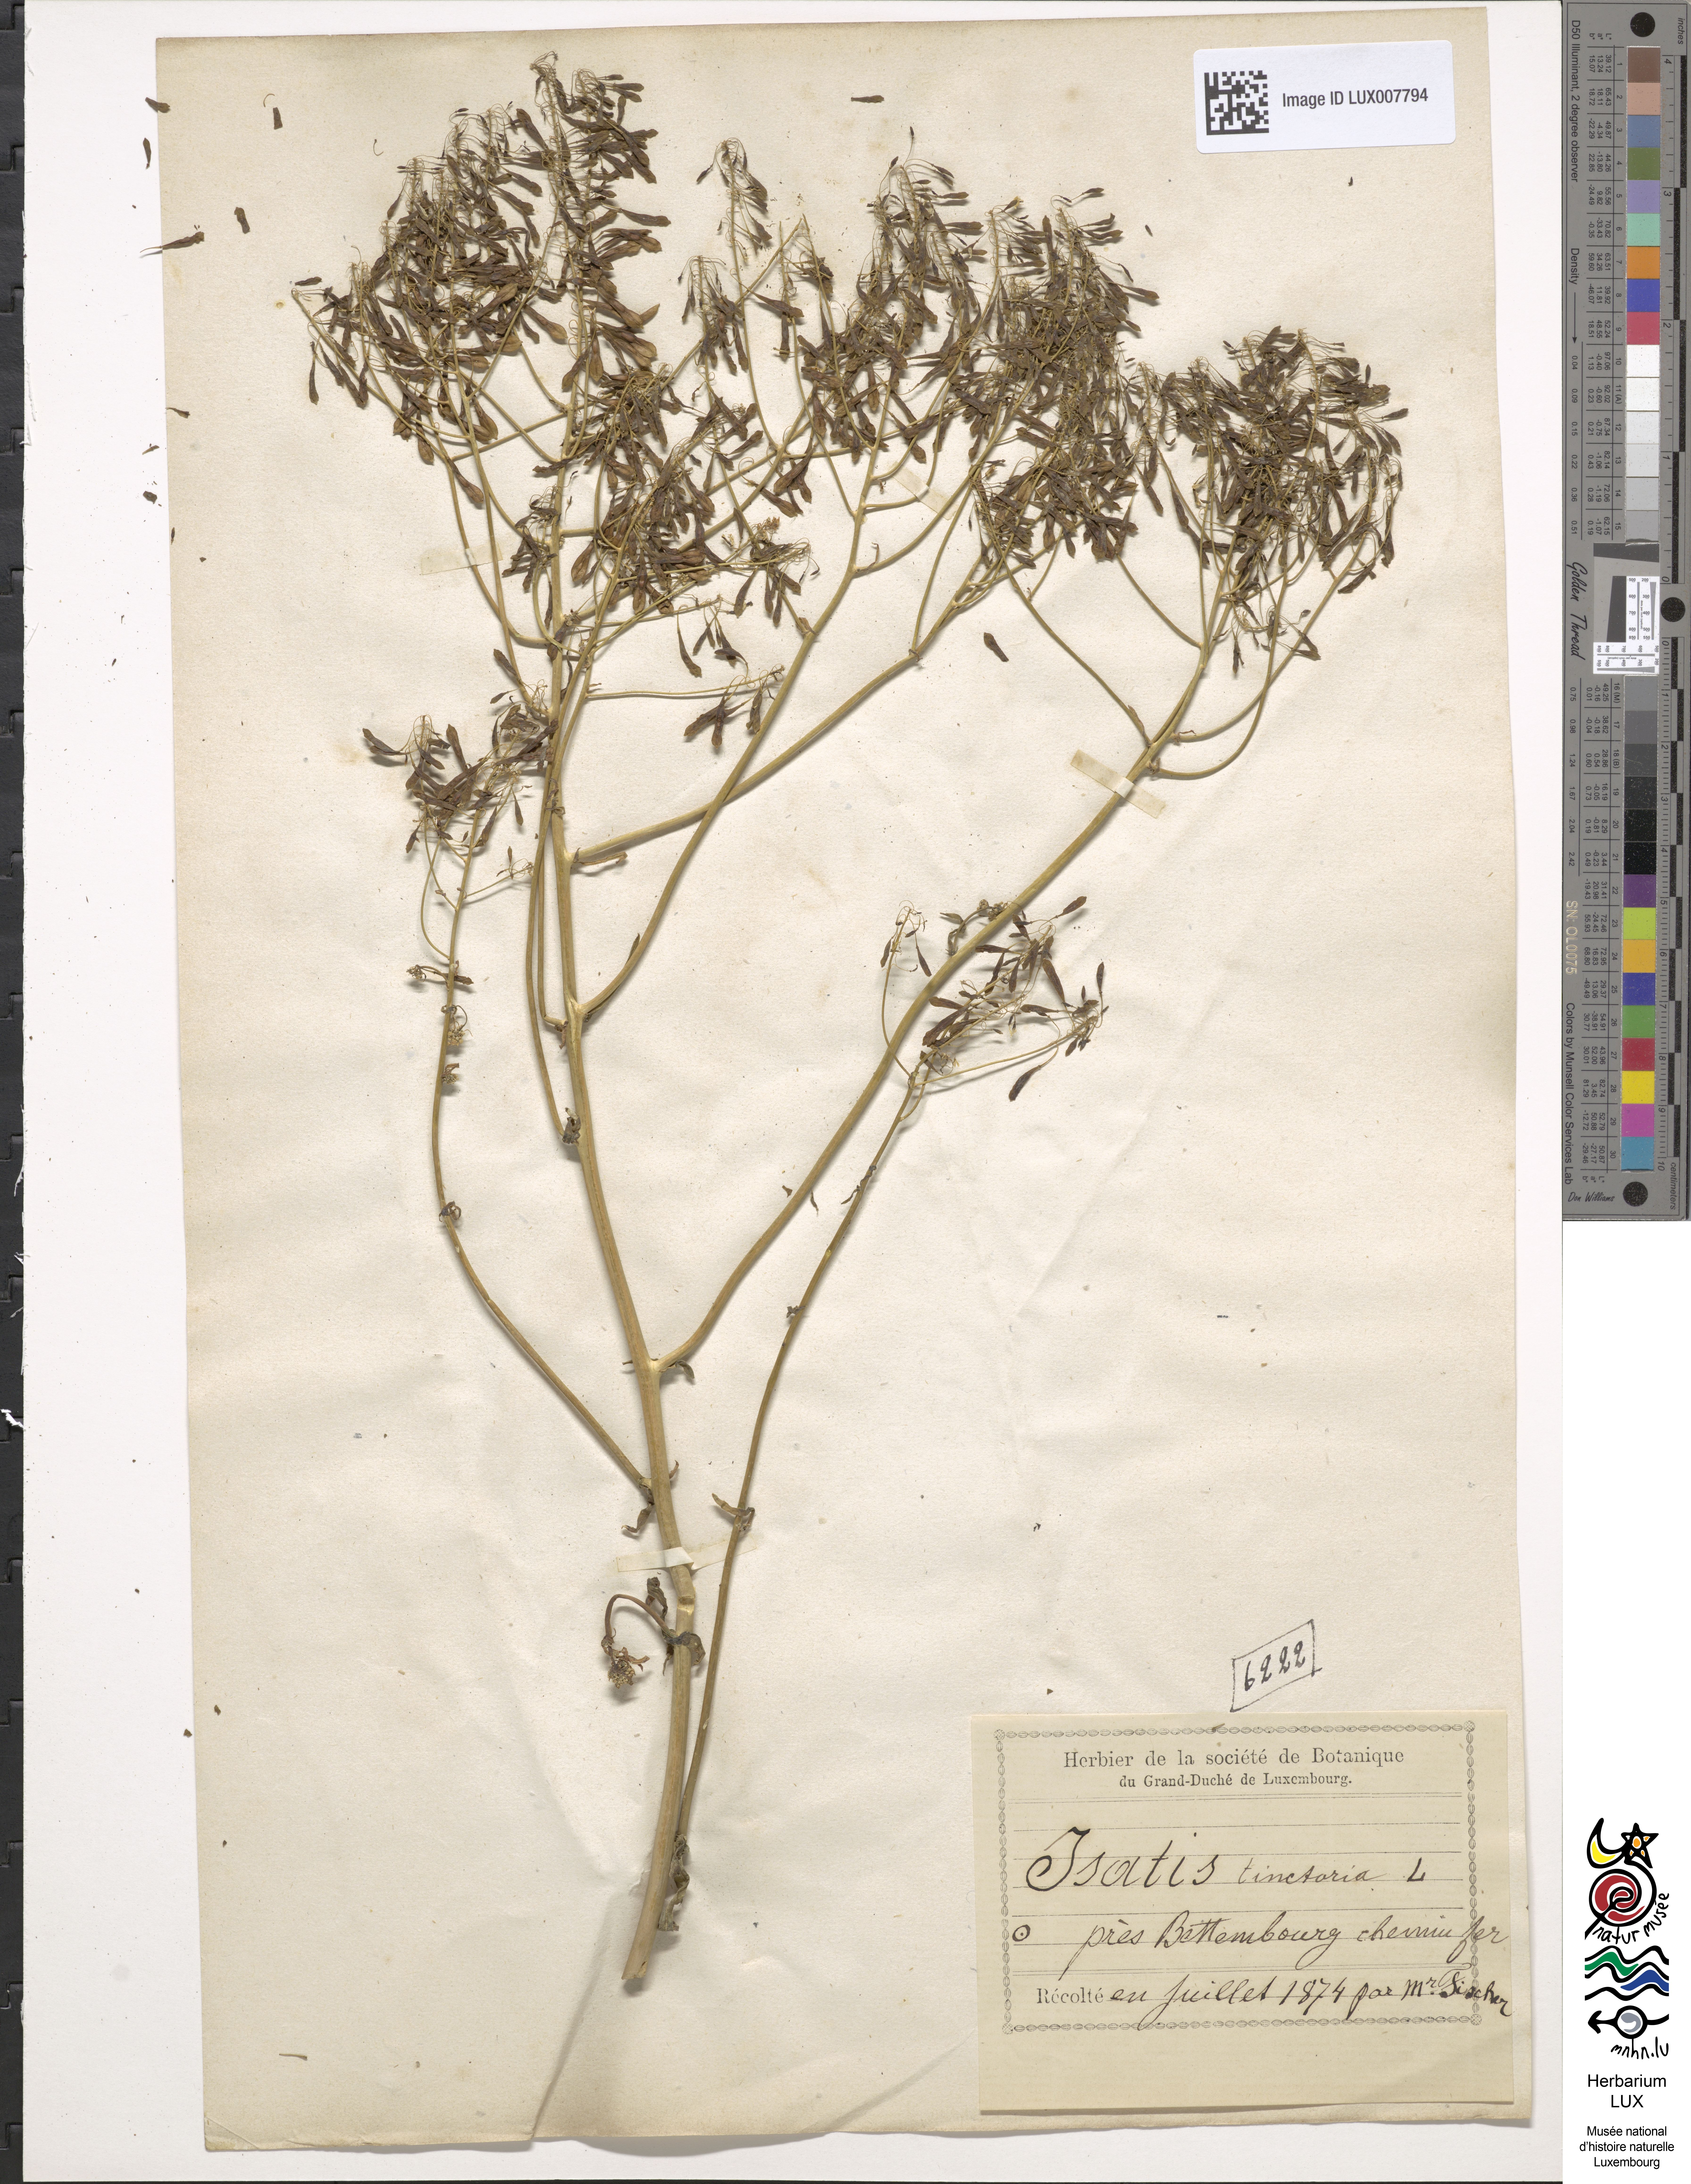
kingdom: Plantae
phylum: Tracheophyta
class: Magnoliopsida
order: Brassicales
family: Brassicaceae
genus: Isatis
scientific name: Isatis tinctoria
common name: Woad
